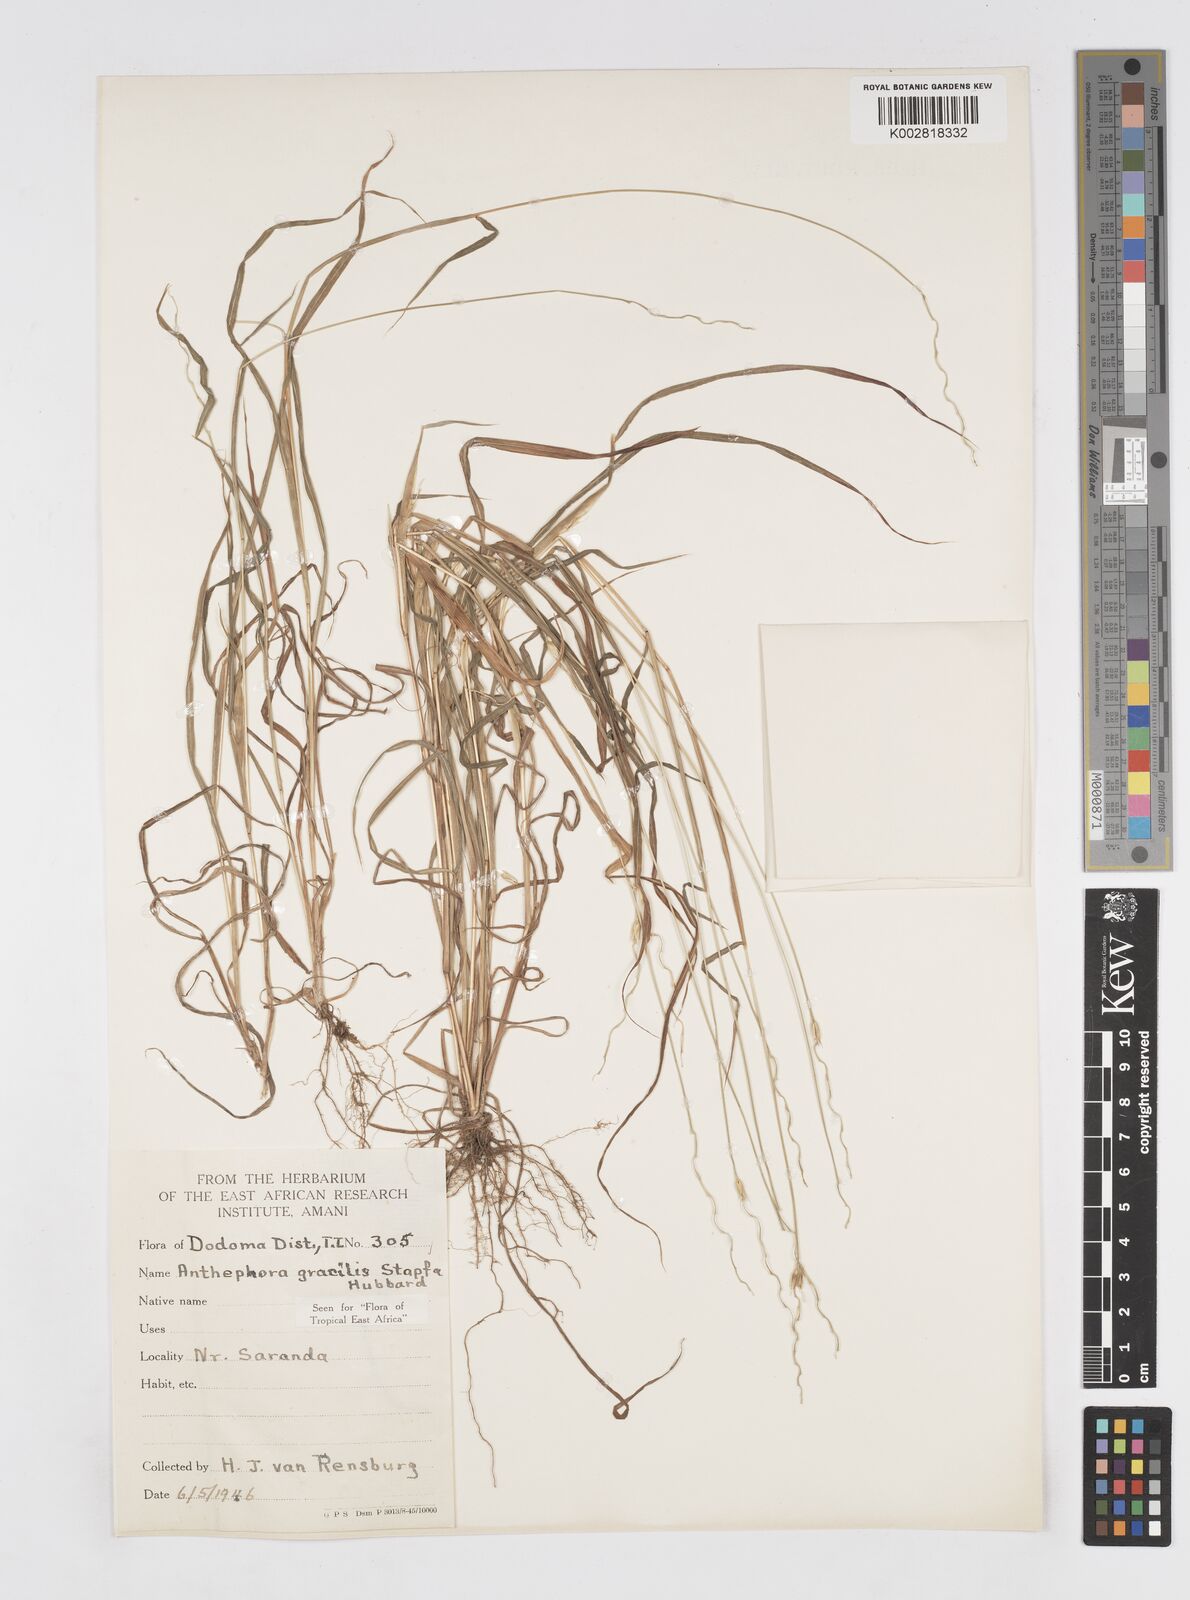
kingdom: Plantae
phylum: Tracheophyta
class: Liliopsida
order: Poales
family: Poaceae
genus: Anthephora
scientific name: Anthephora truncata
